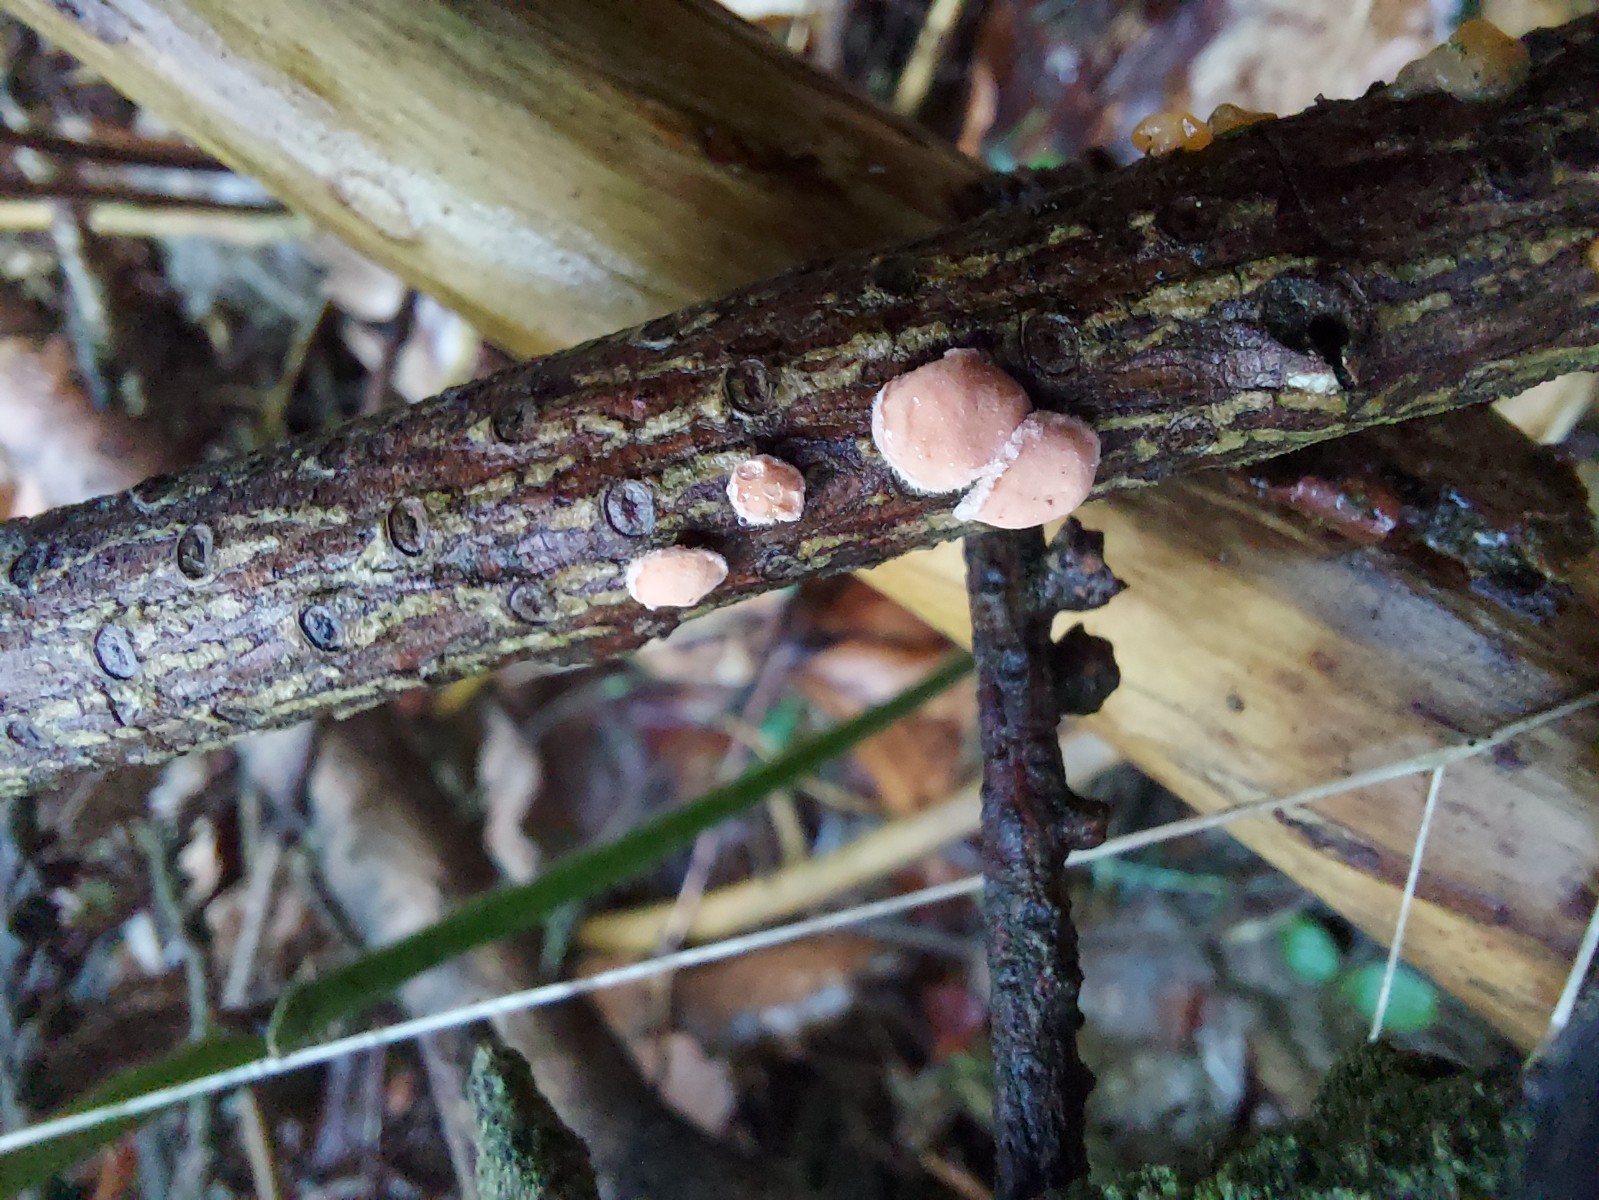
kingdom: Fungi
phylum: Basidiomycota
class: Agaricomycetes
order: Russulales
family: Stereaceae
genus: Aleurodiscus
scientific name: Aleurodiscus amorphus
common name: orange skiveskorpe
